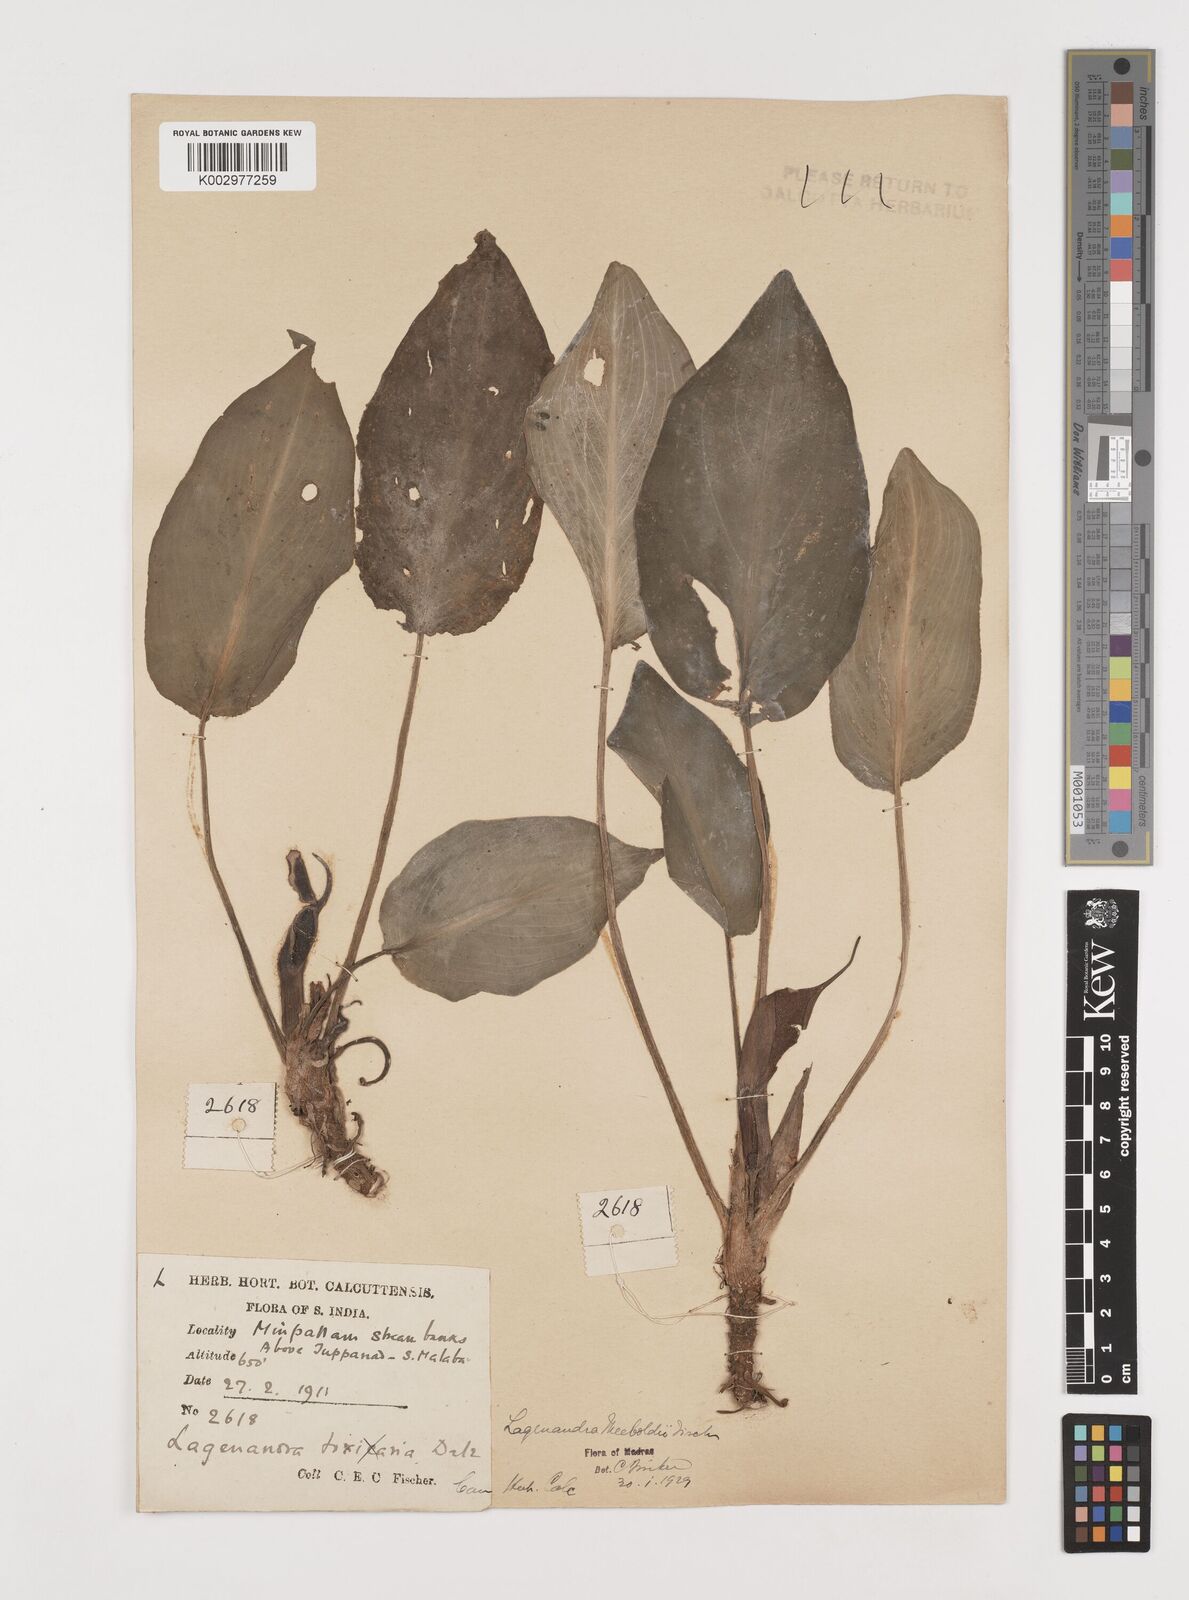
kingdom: Plantae
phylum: Tracheophyta
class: Liliopsida
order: Alismatales
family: Araceae
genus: Lagenandra
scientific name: Lagenandra meeboldii
